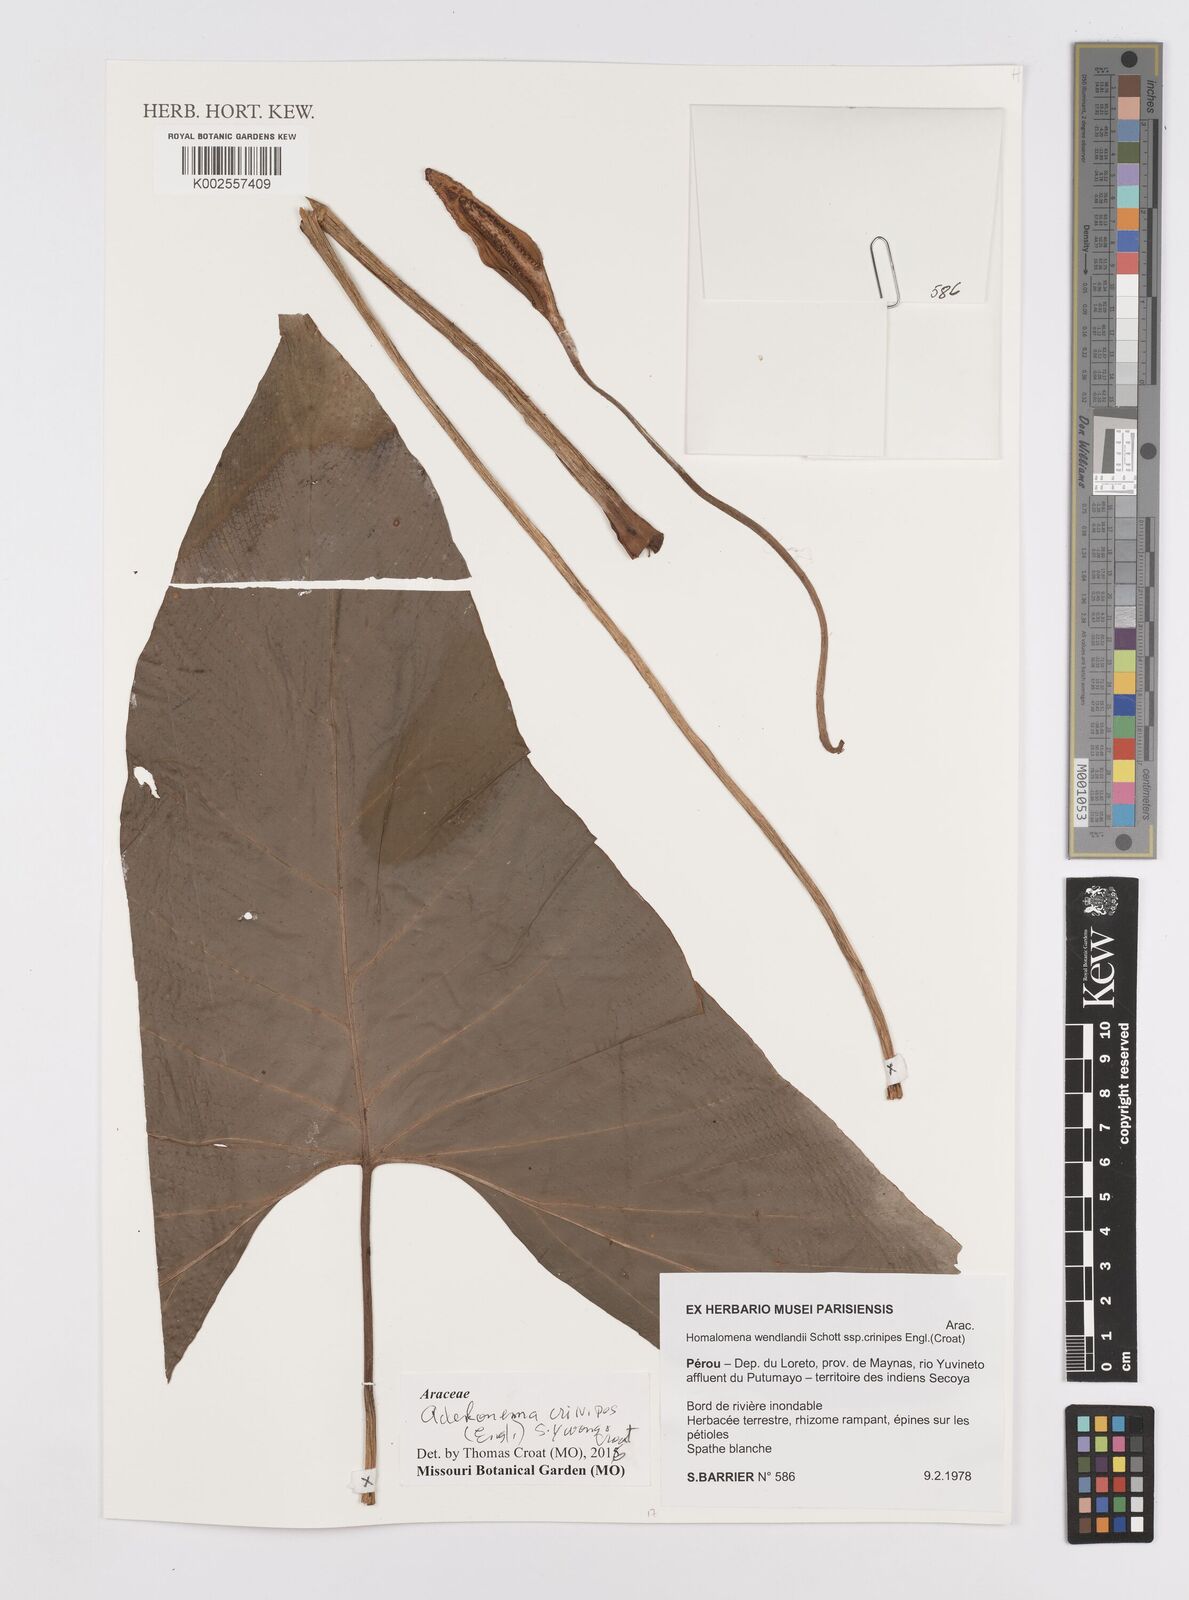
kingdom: Plantae
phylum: Tracheophyta
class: Liliopsida
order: Alismatales
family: Araceae
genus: Adelonema
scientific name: Adelonema crinipes
